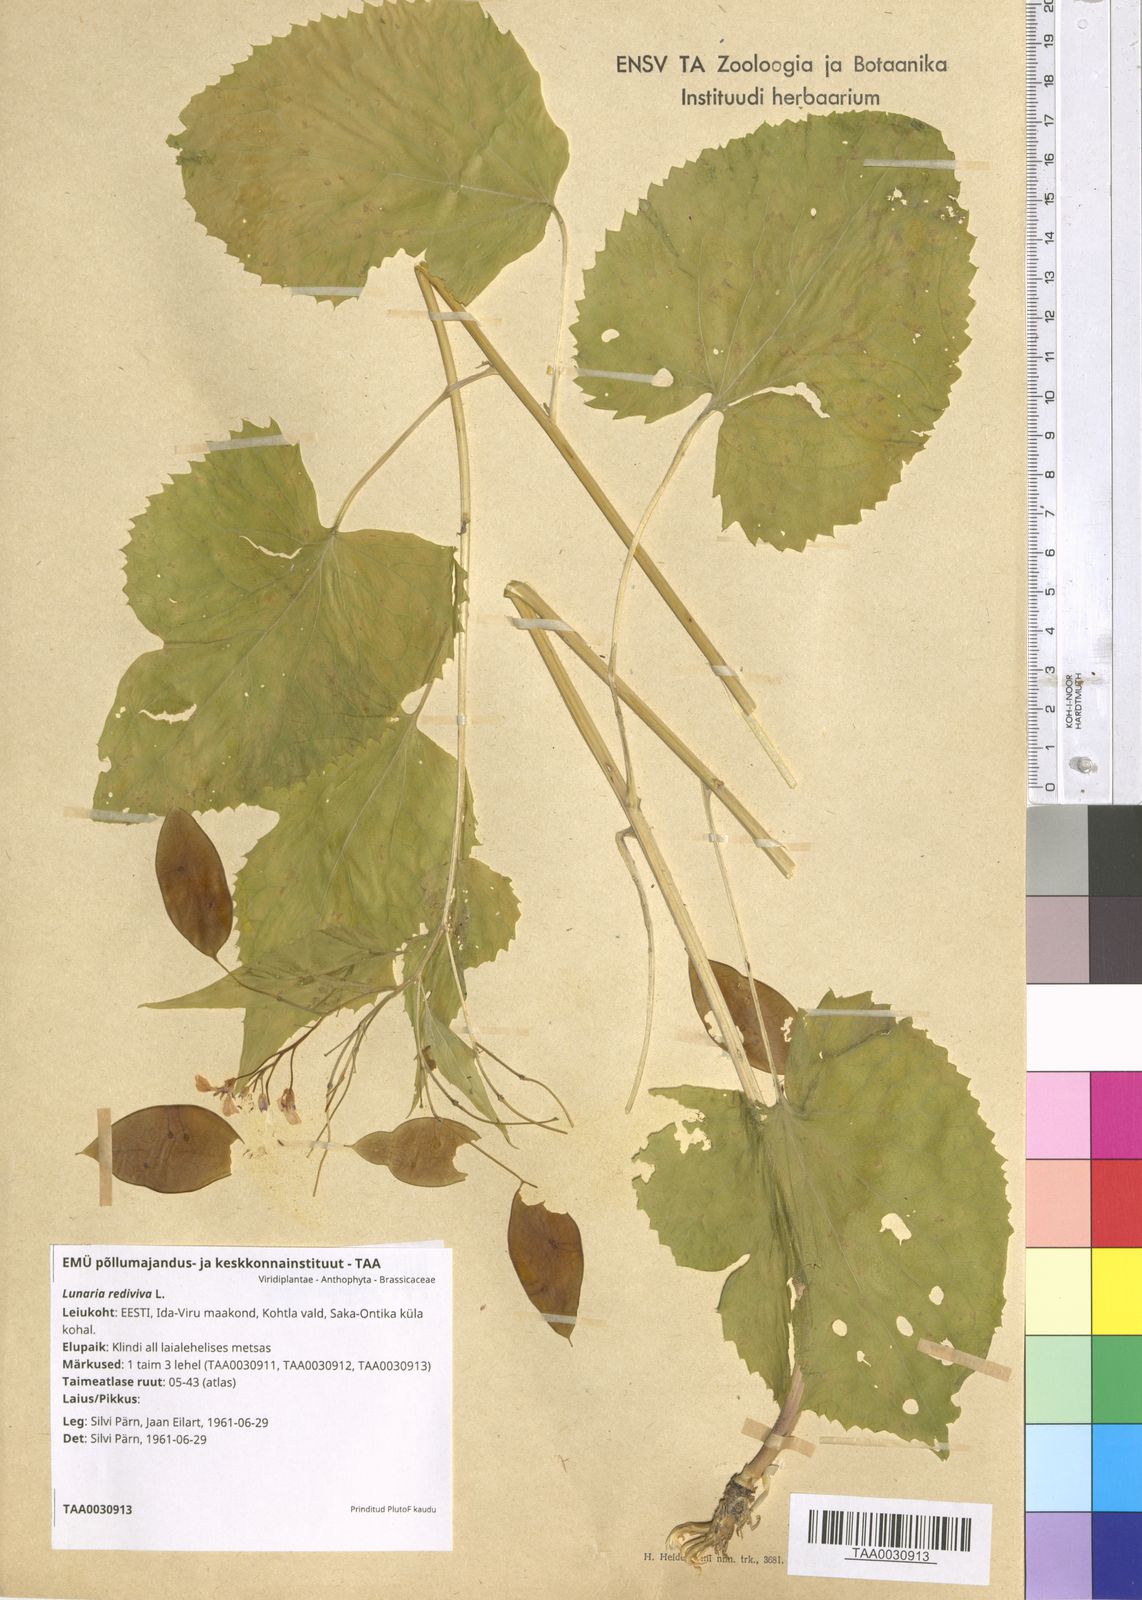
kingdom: Plantae
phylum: Tracheophyta
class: Magnoliopsida
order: Brassicales
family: Brassicaceae
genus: Lunaria
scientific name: Lunaria rediviva
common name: Perennial honesty
